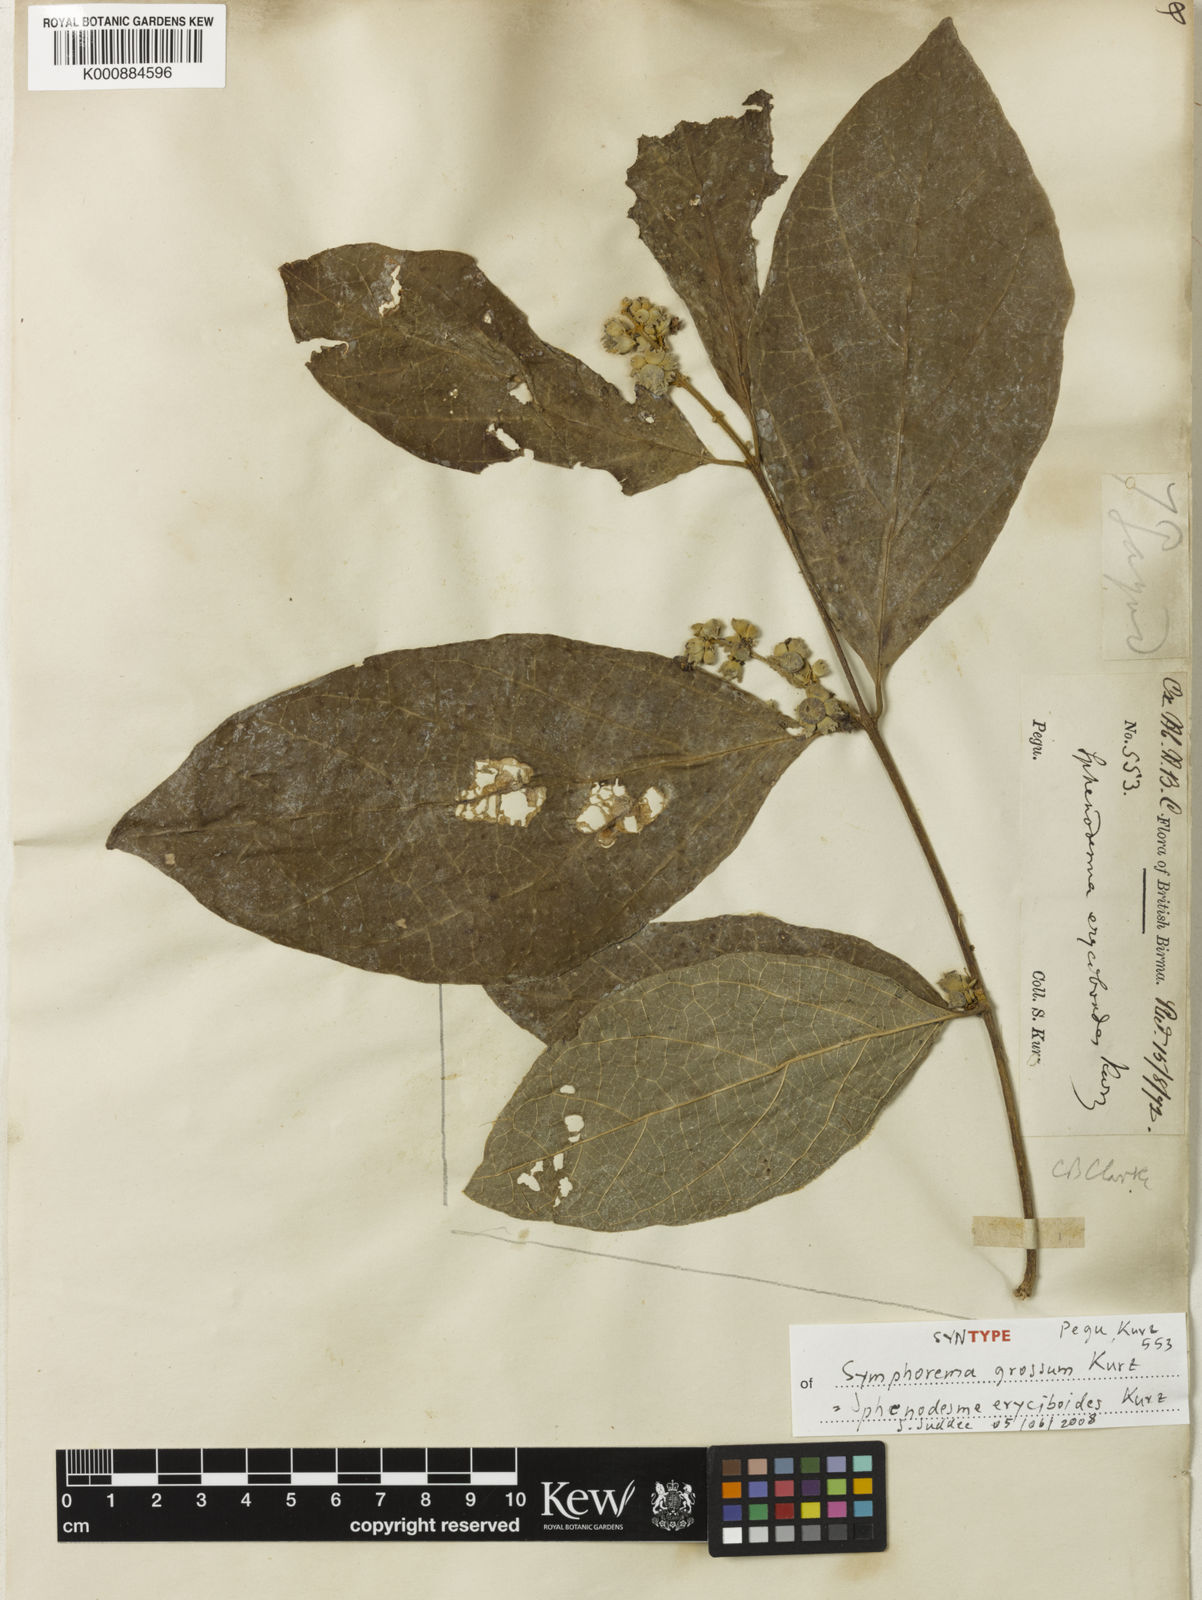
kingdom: Plantae
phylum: Tracheophyta
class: Magnoliopsida
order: Lamiales
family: Lamiaceae
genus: Sphenodesme
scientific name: Sphenodesme eryciboides
